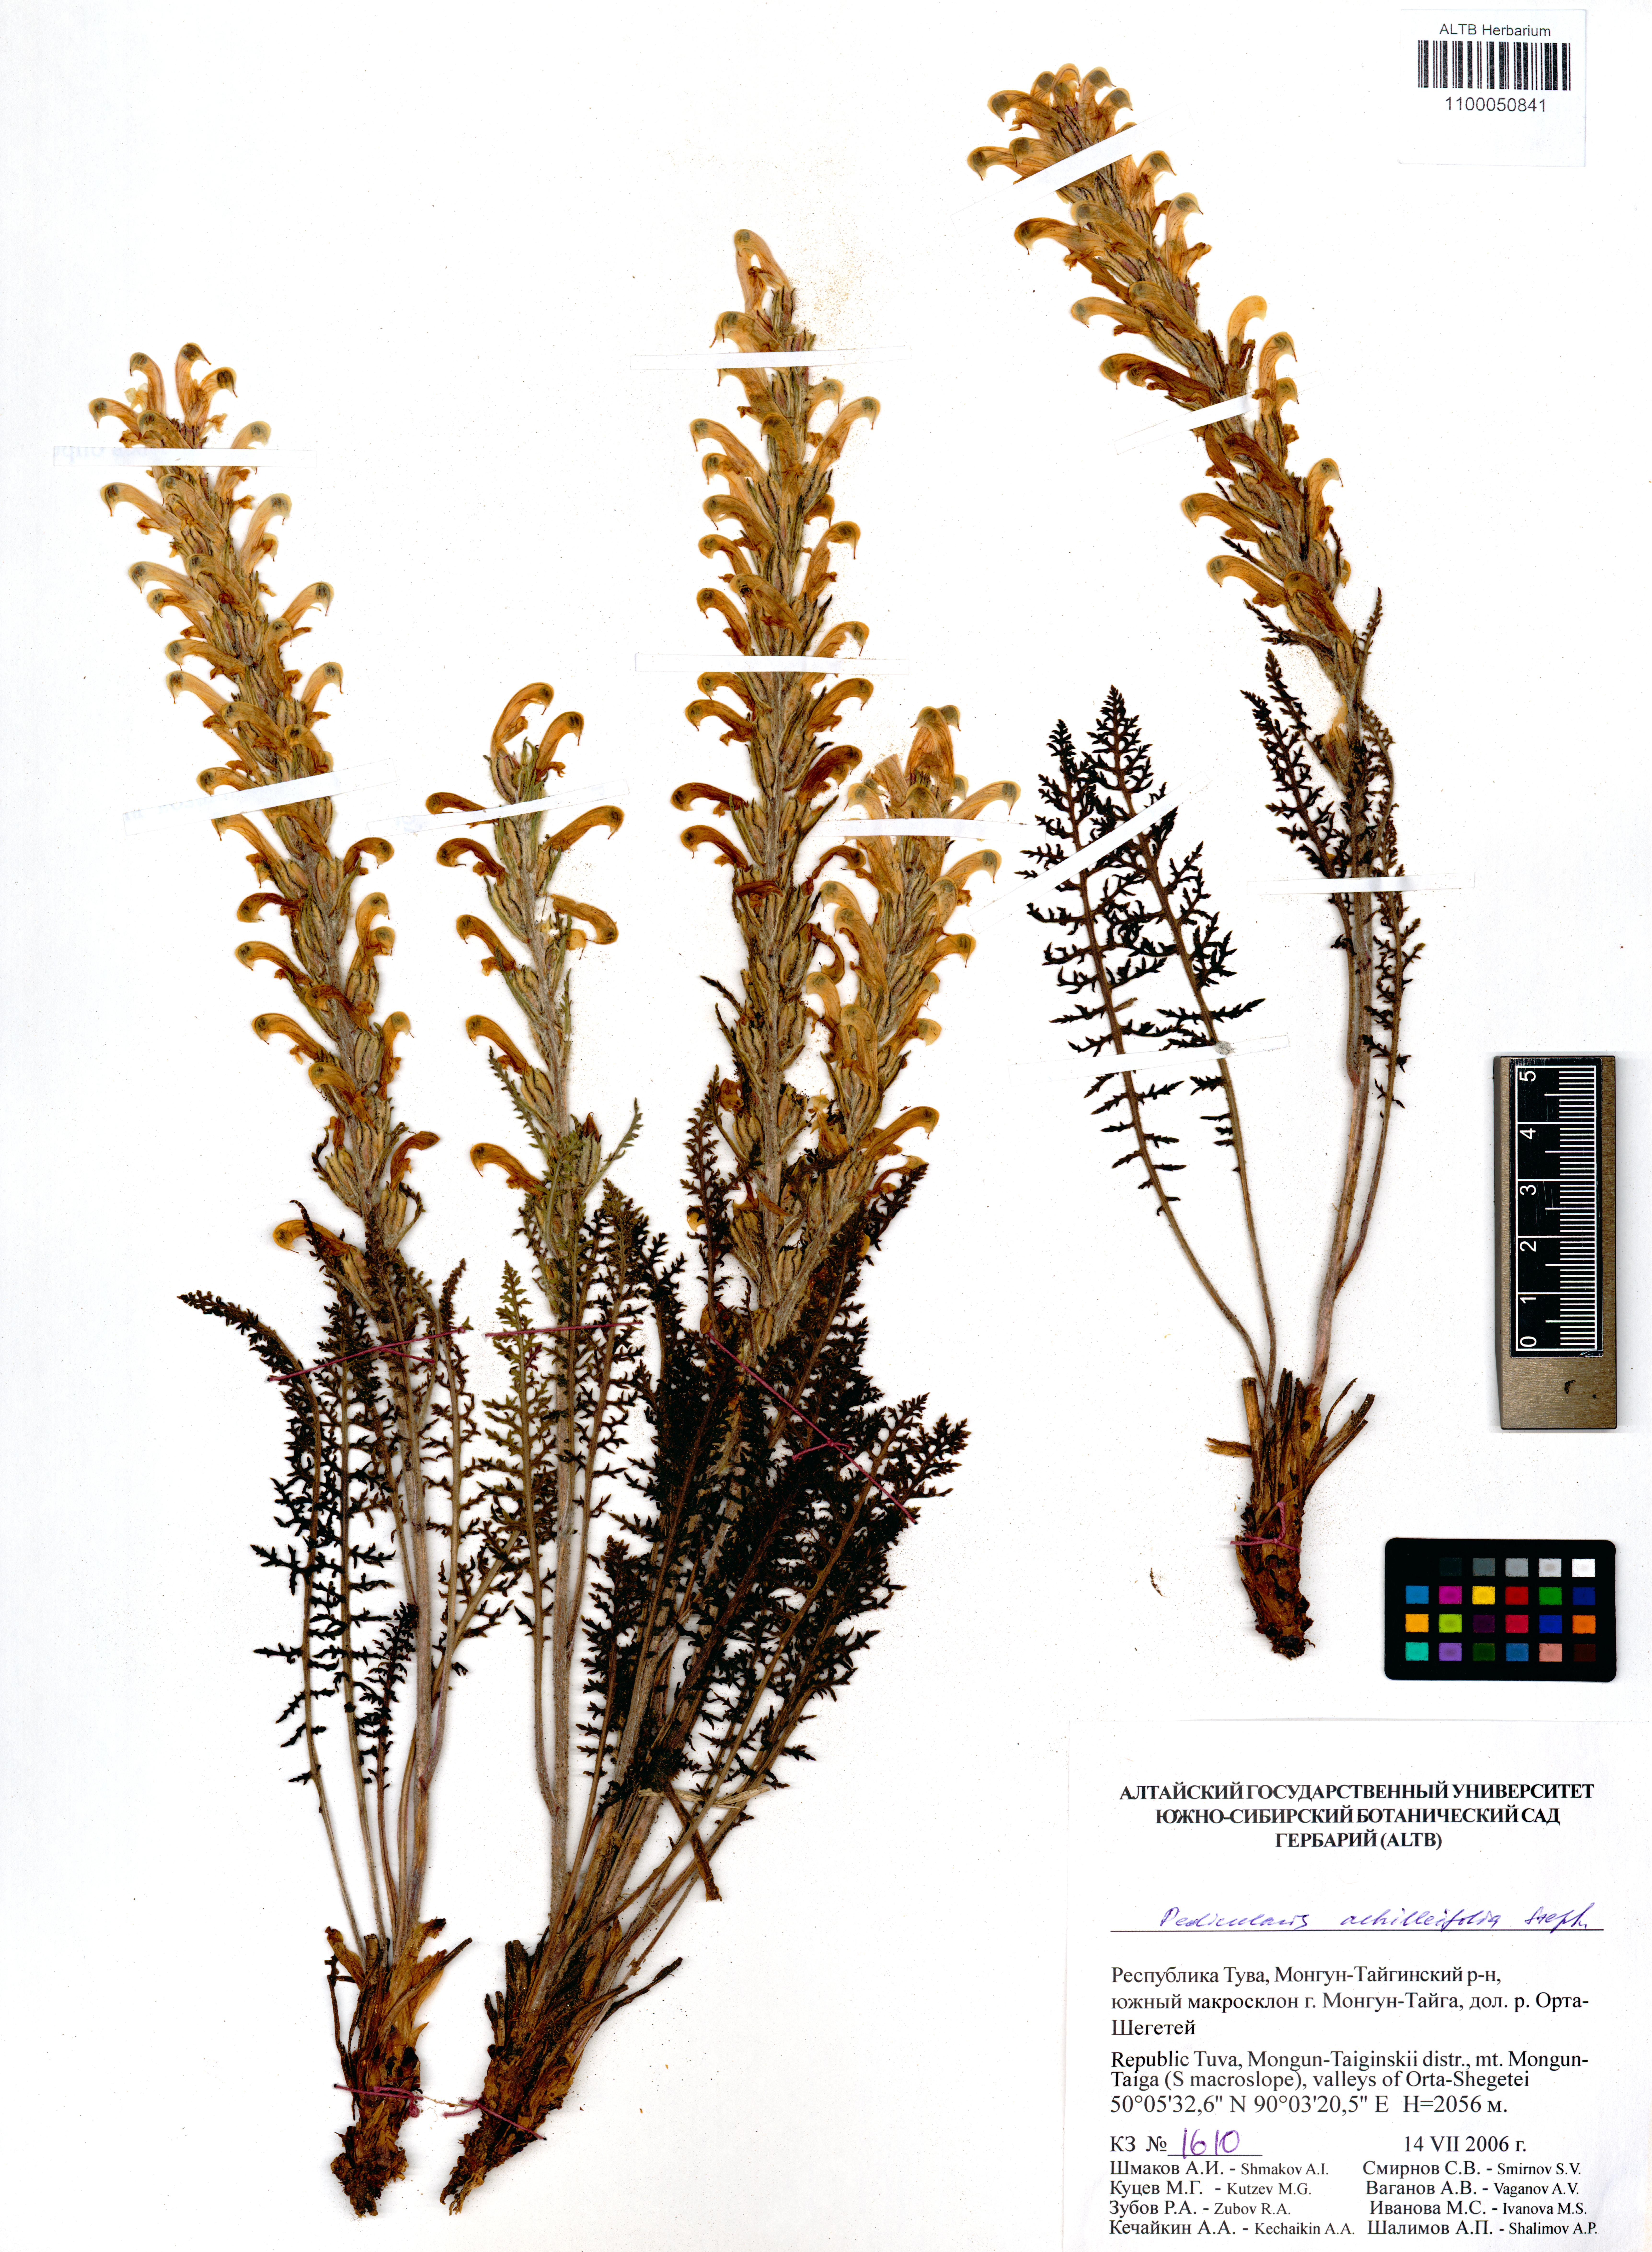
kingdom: Plantae
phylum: Tracheophyta
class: Magnoliopsida
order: Lamiales
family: Orobanchaceae
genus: Pedicularis
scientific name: Pedicularis achilleifolia
